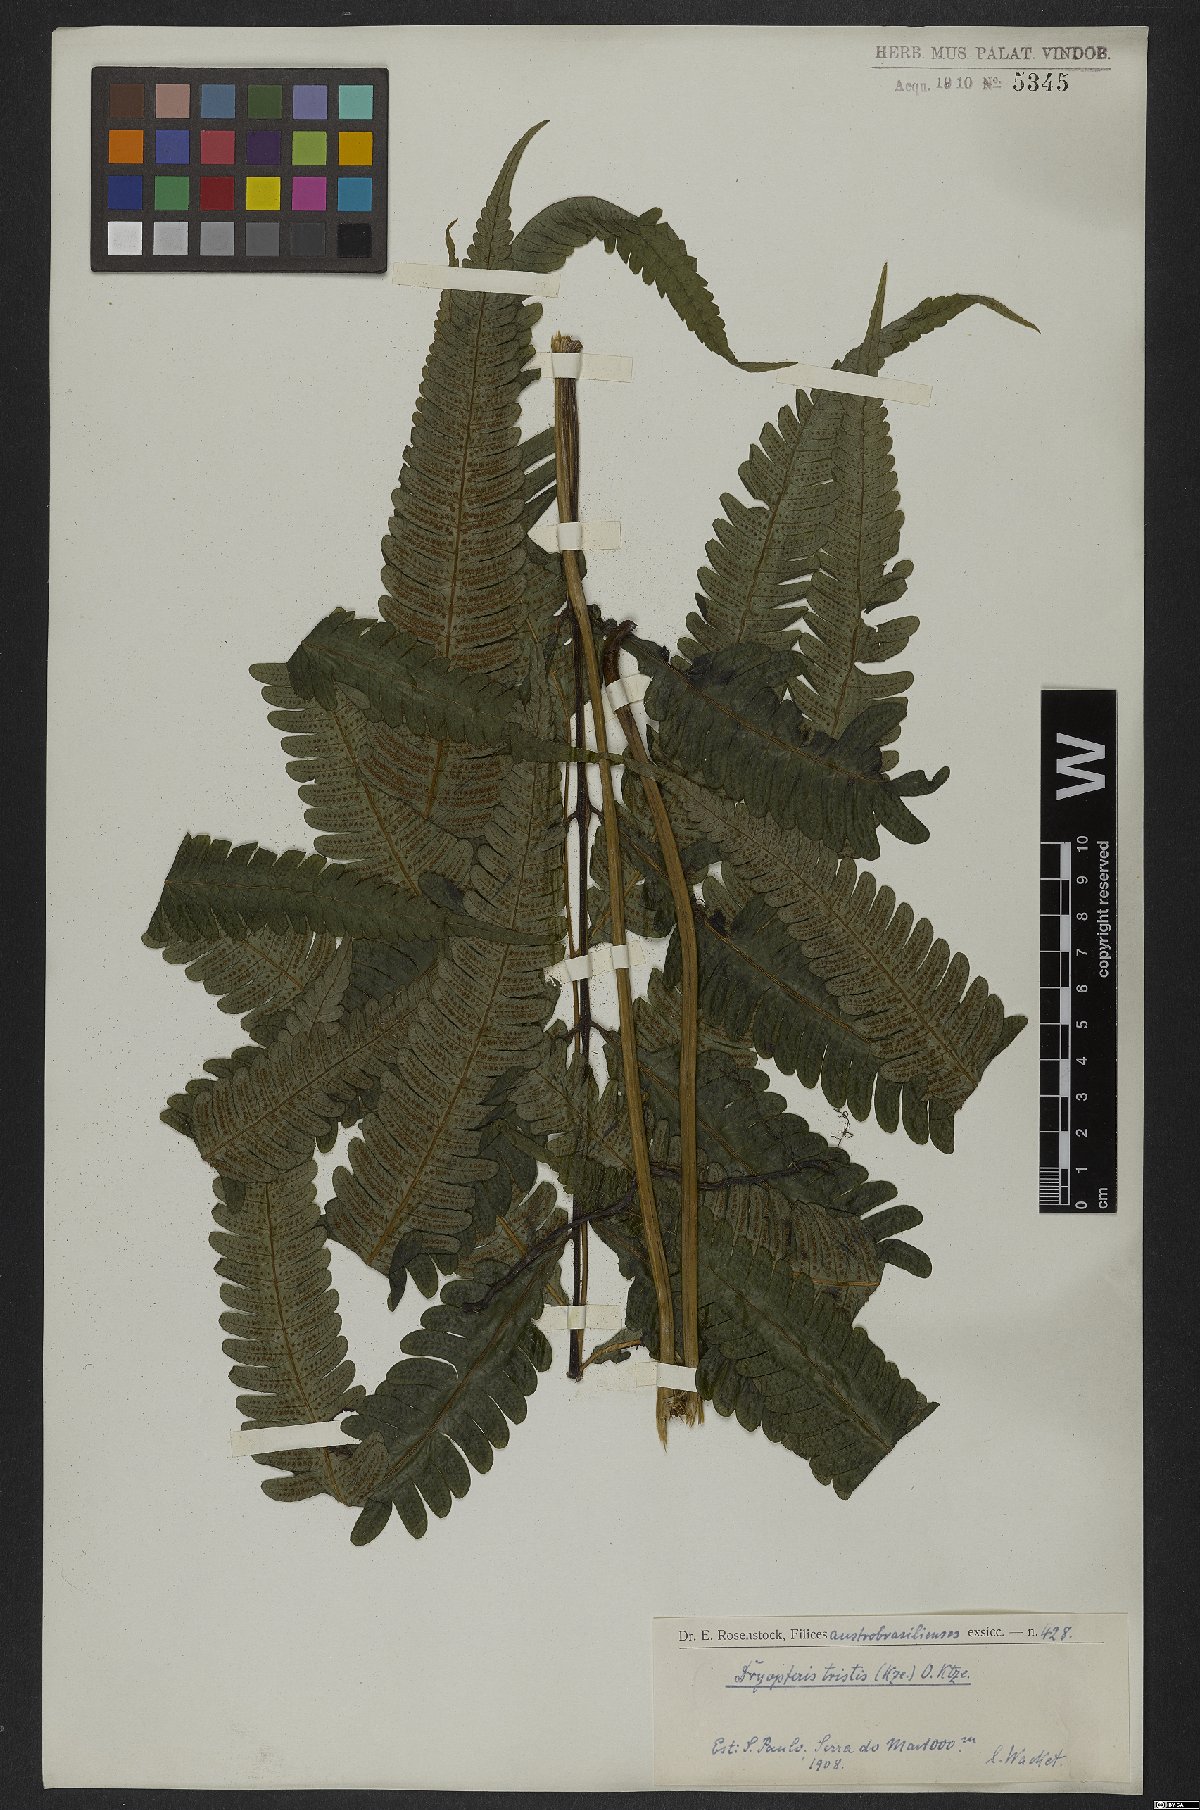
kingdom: Plantae
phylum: Tracheophyta
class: Polypodiopsida
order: Polypodiales
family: Thelypteridaceae
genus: Goniopteris
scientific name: Goniopteris tristis
